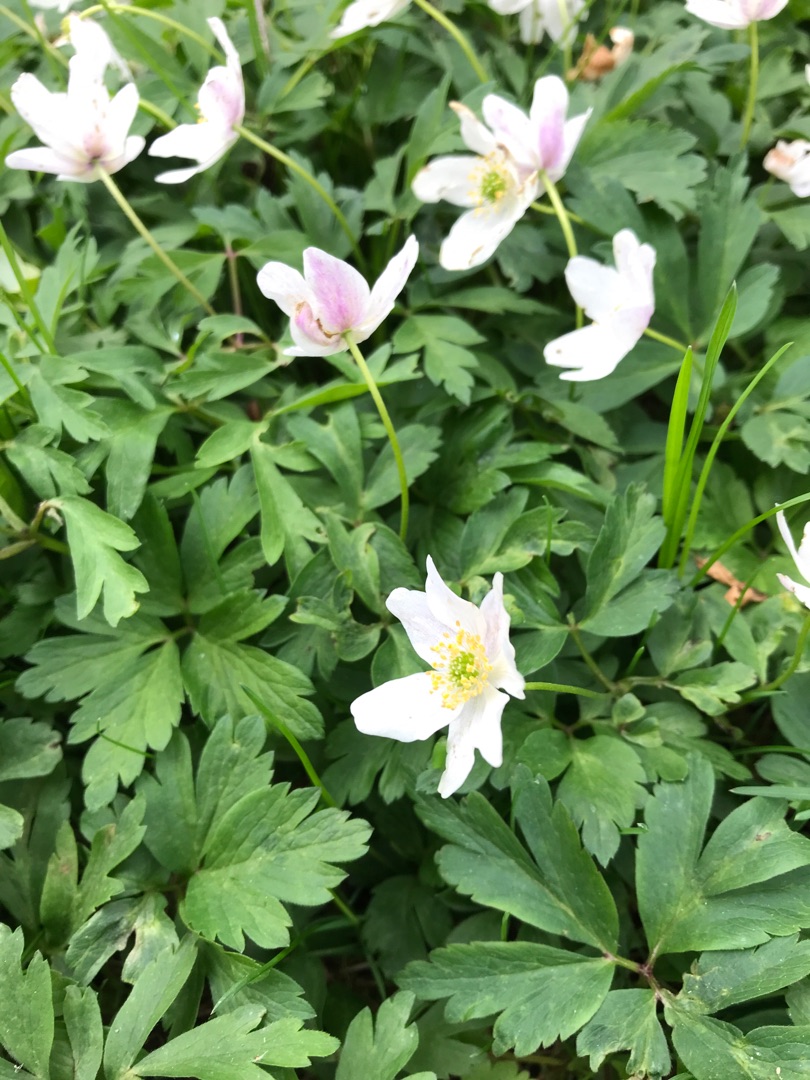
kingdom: Plantae
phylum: Tracheophyta
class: Magnoliopsida
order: Ranunculales
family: Ranunculaceae
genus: Anemone
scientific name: Anemone nemorosa
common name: Hvid anemone
